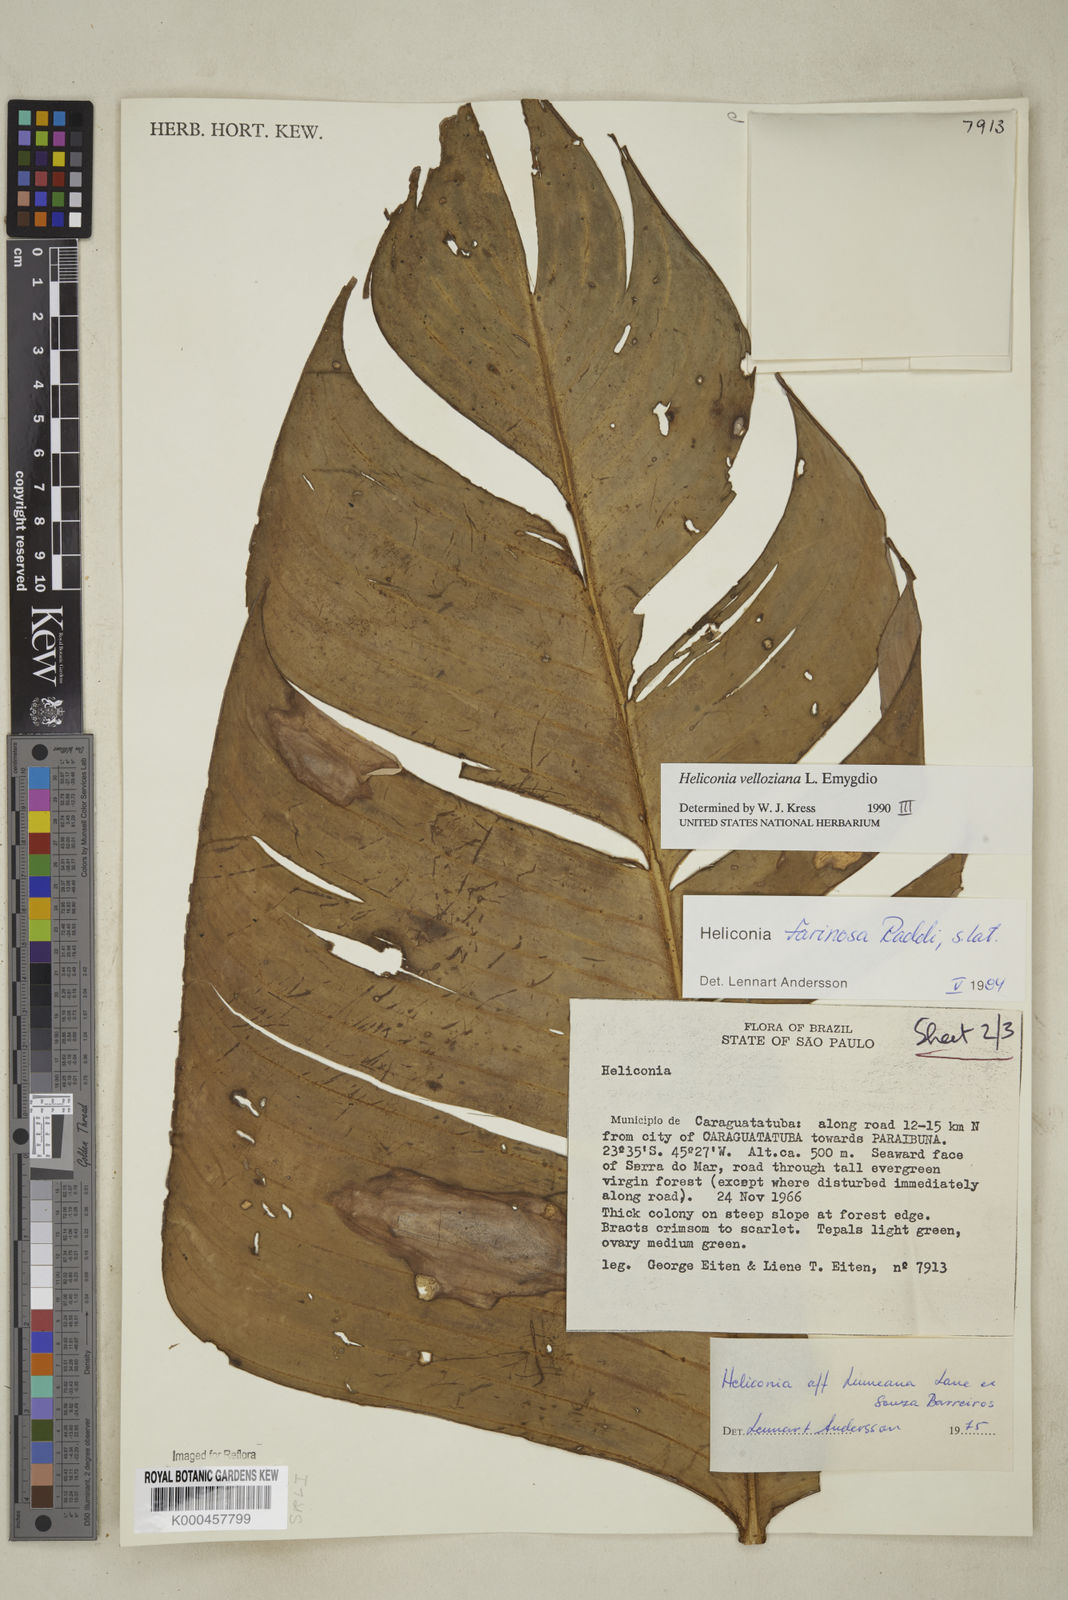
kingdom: Plantae
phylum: Tracheophyta
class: Liliopsida
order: Zingiberales
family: Heliconiaceae
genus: Heliconia
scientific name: Heliconia farinosa
